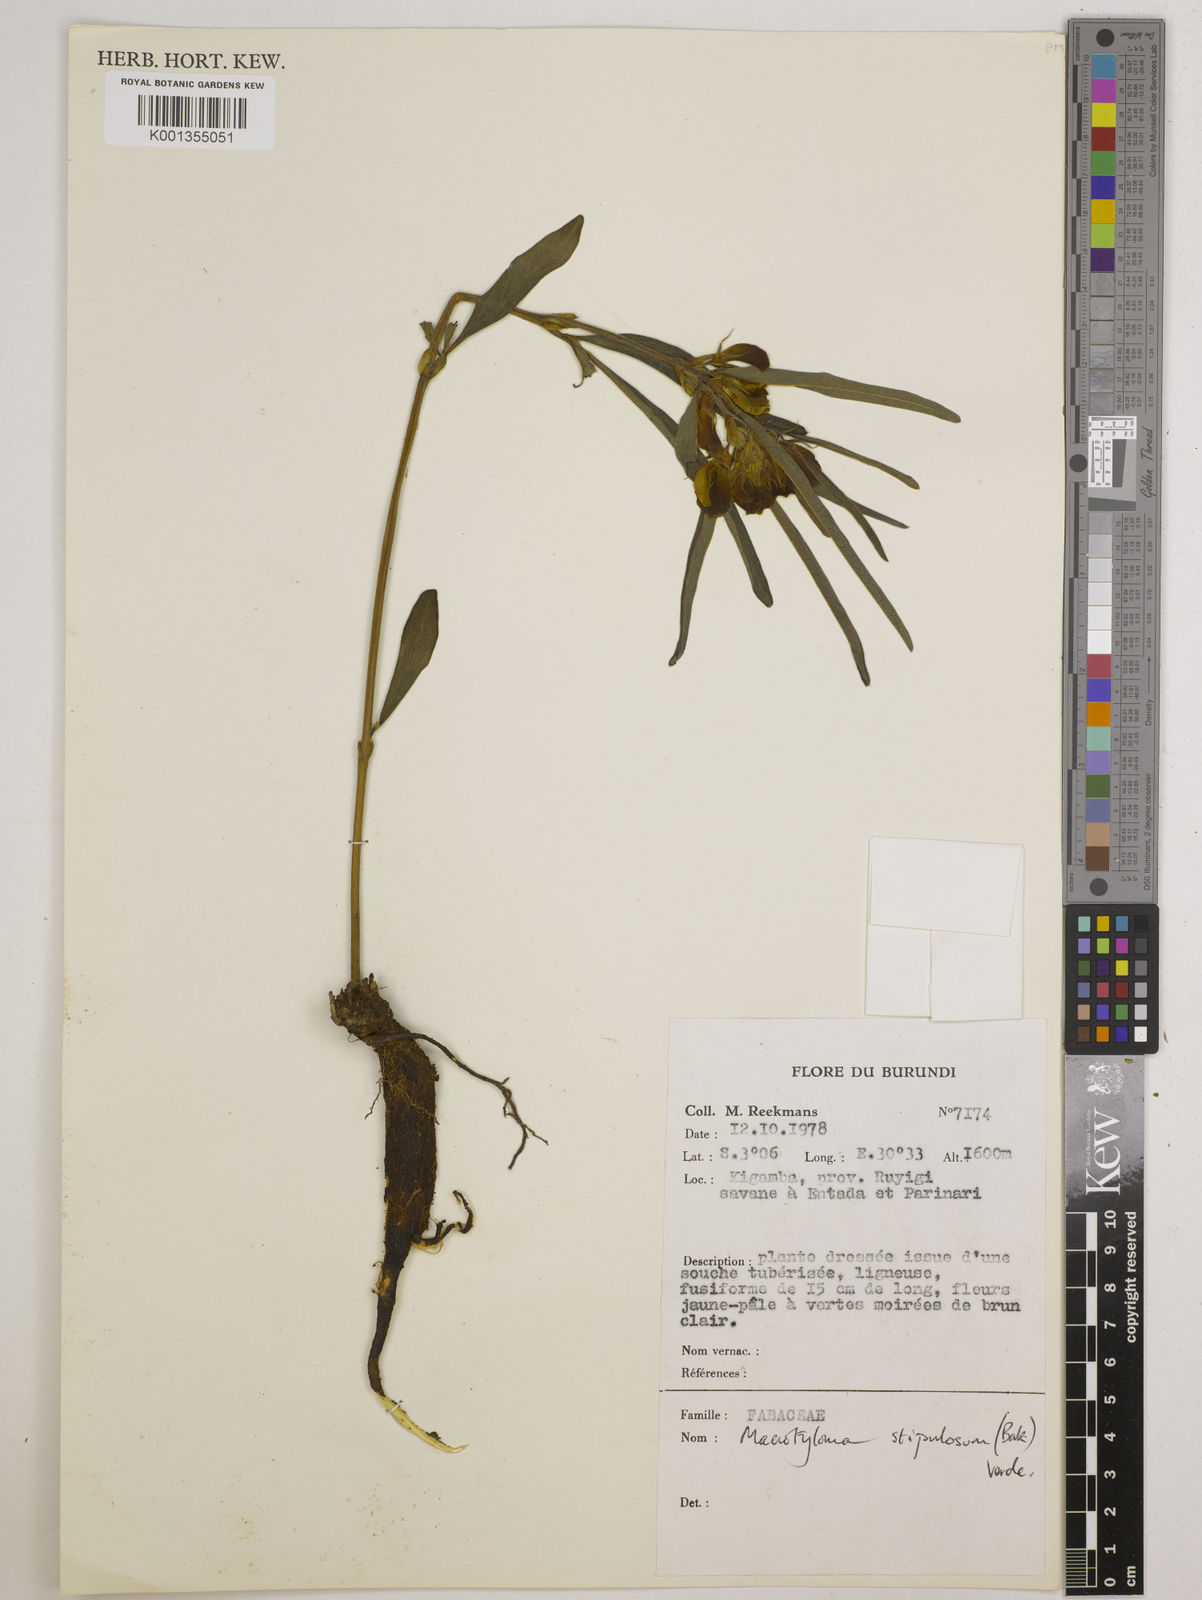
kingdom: Plantae
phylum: Tracheophyta
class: Magnoliopsida
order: Fabales
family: Fabaceae
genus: Macrotyloma
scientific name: Macrotyloma stipulosum
